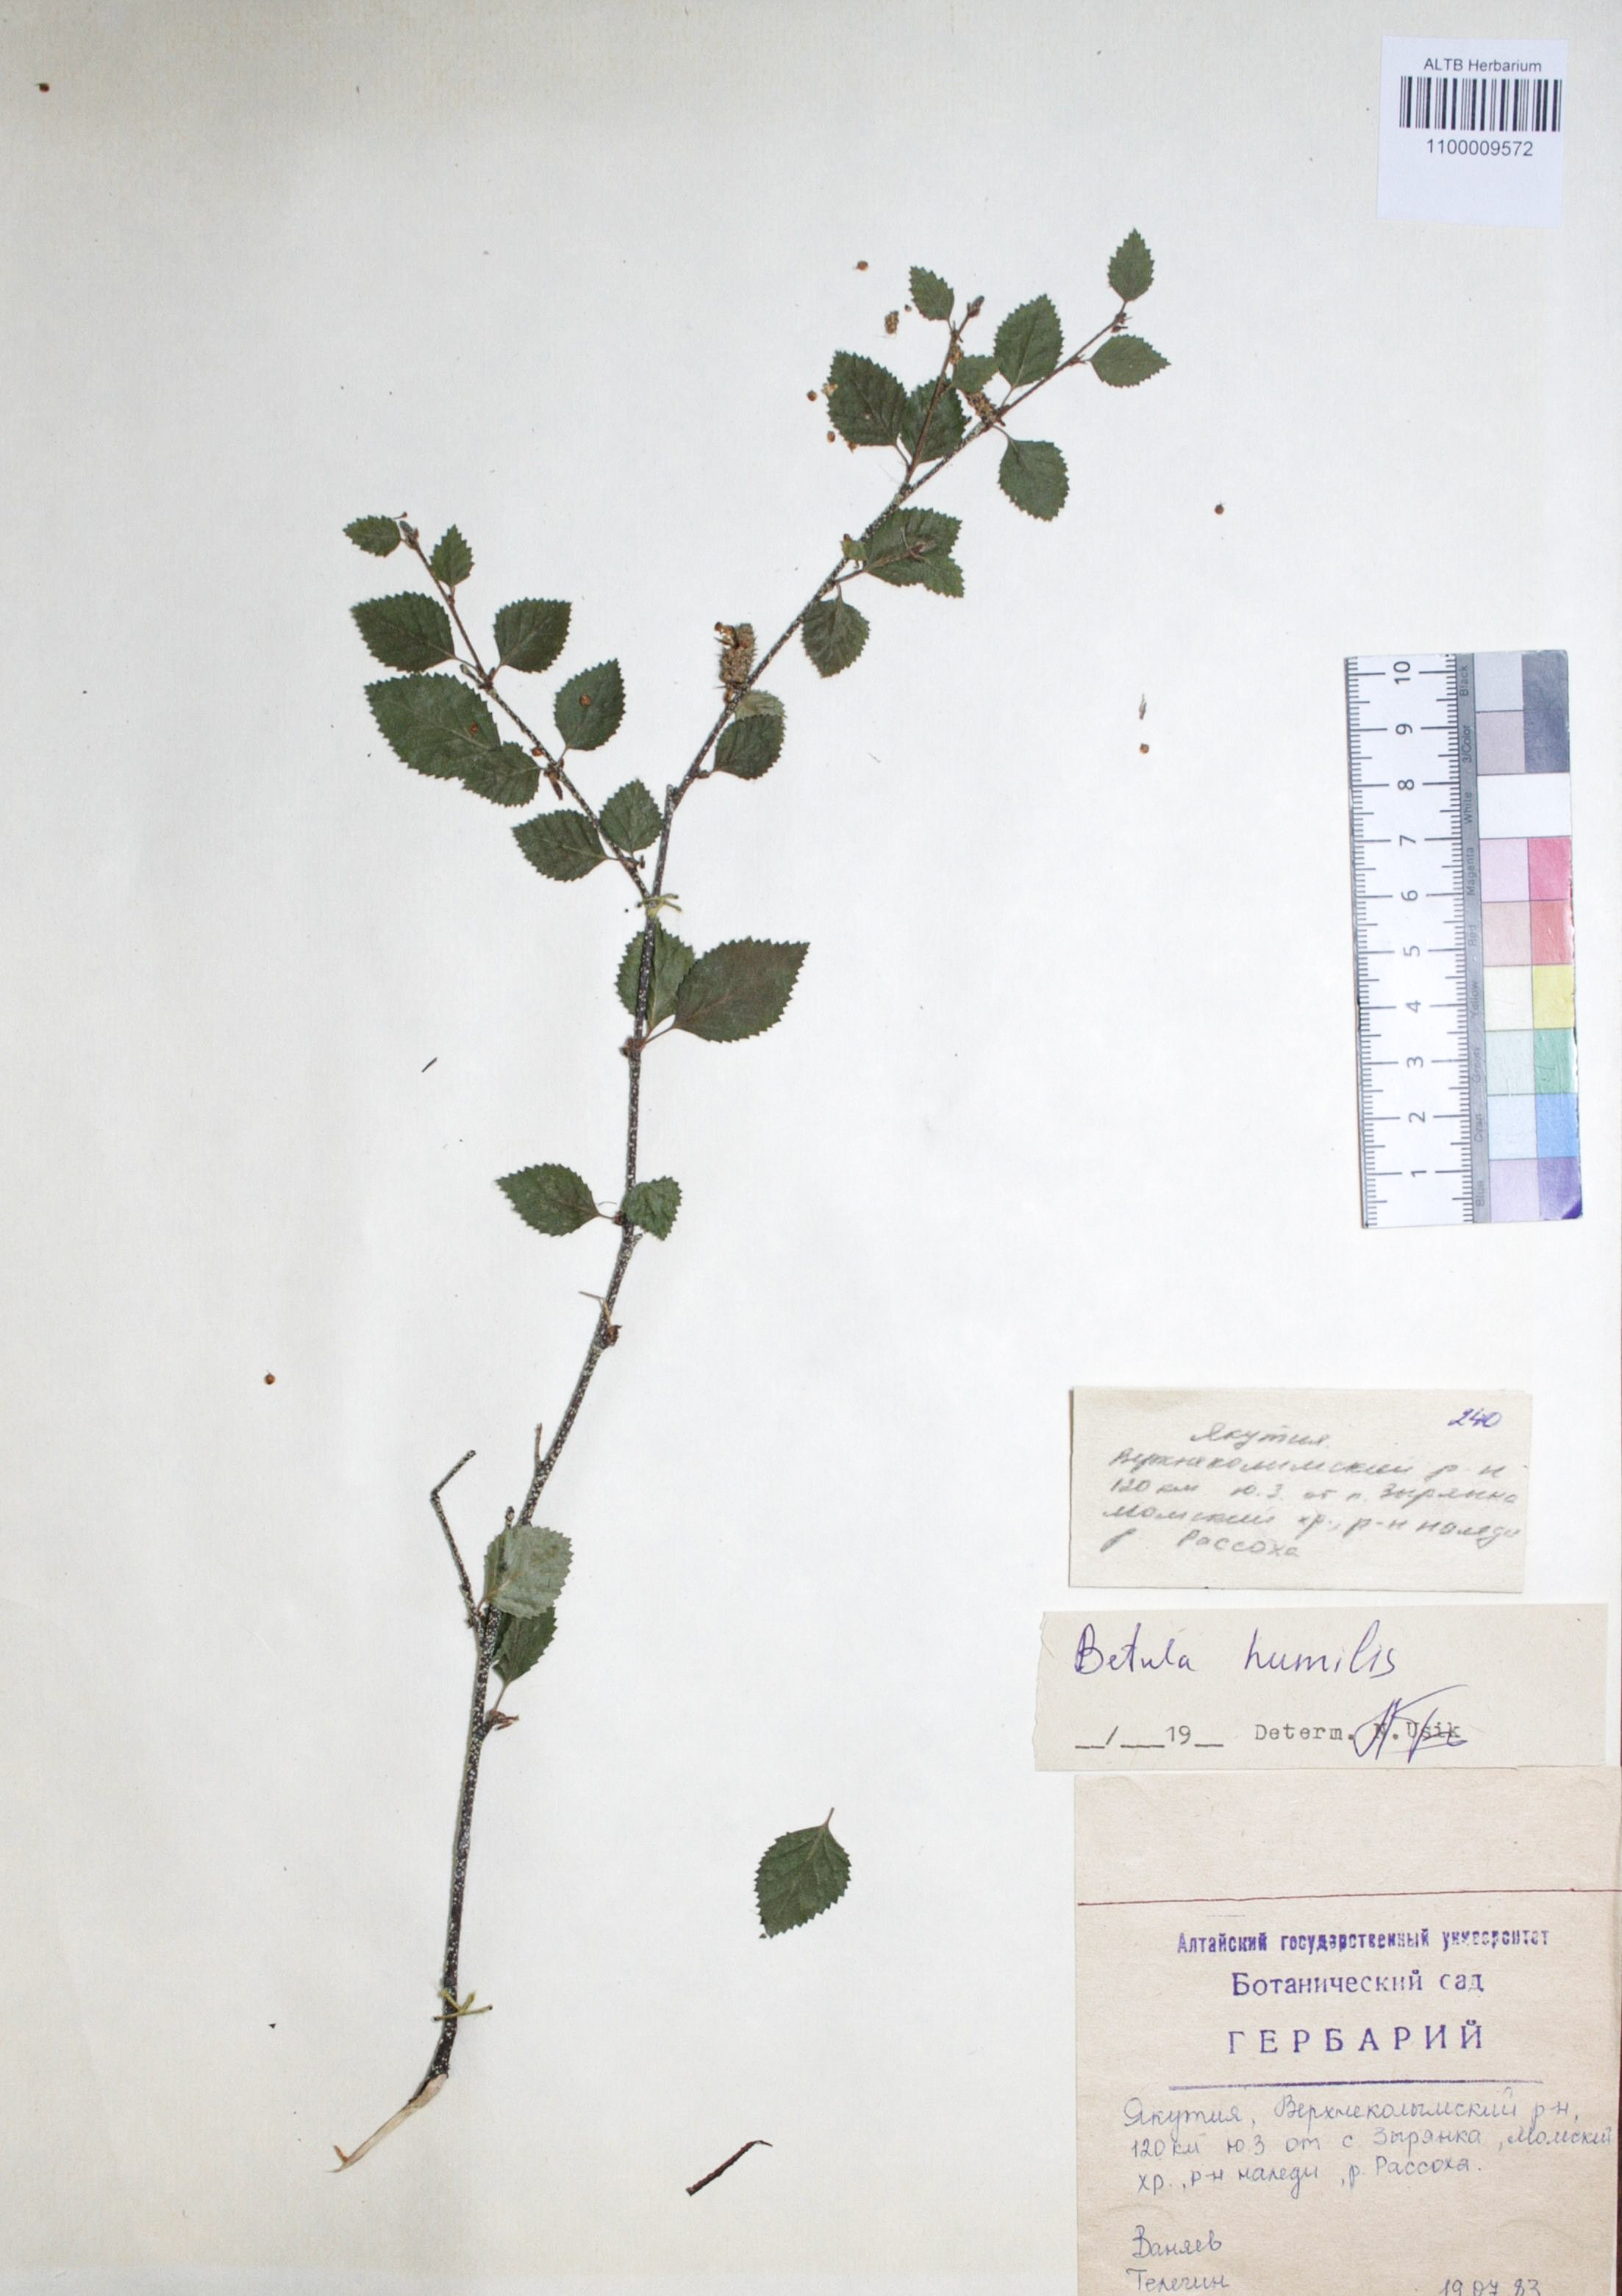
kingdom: Plantae
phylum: Tracheophyta
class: Magnoliopsida
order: Fagales
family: Betulaceae
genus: Betula
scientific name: Betula humilis
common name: Shrubby birch
